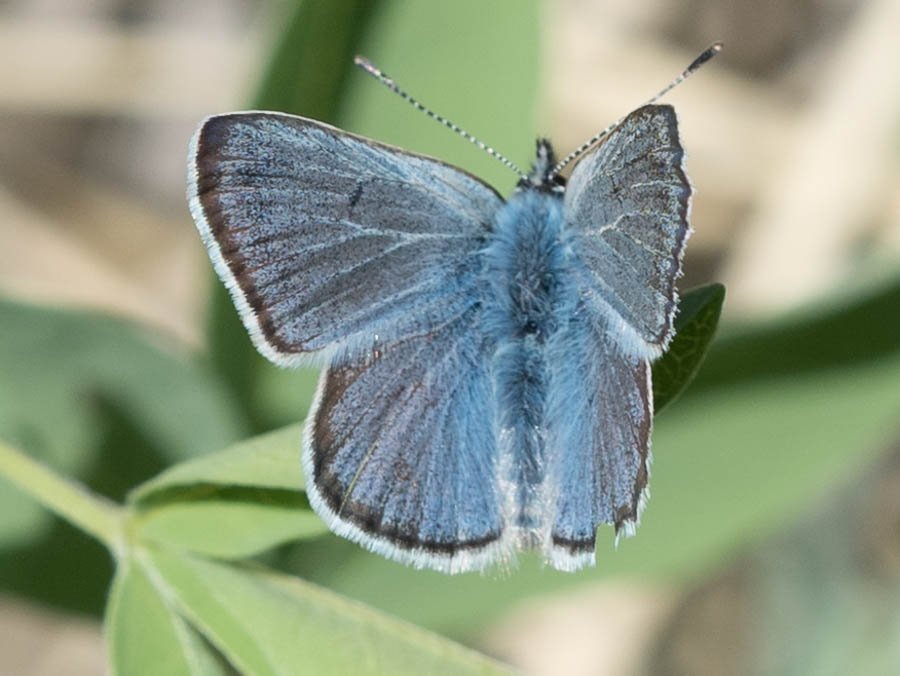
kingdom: Animalia
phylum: Arthropoda
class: Insecta
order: Lepidoptera
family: Lycaenidae
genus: Plebejus
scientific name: Plebejus saepiolus
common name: Greenish Blue
